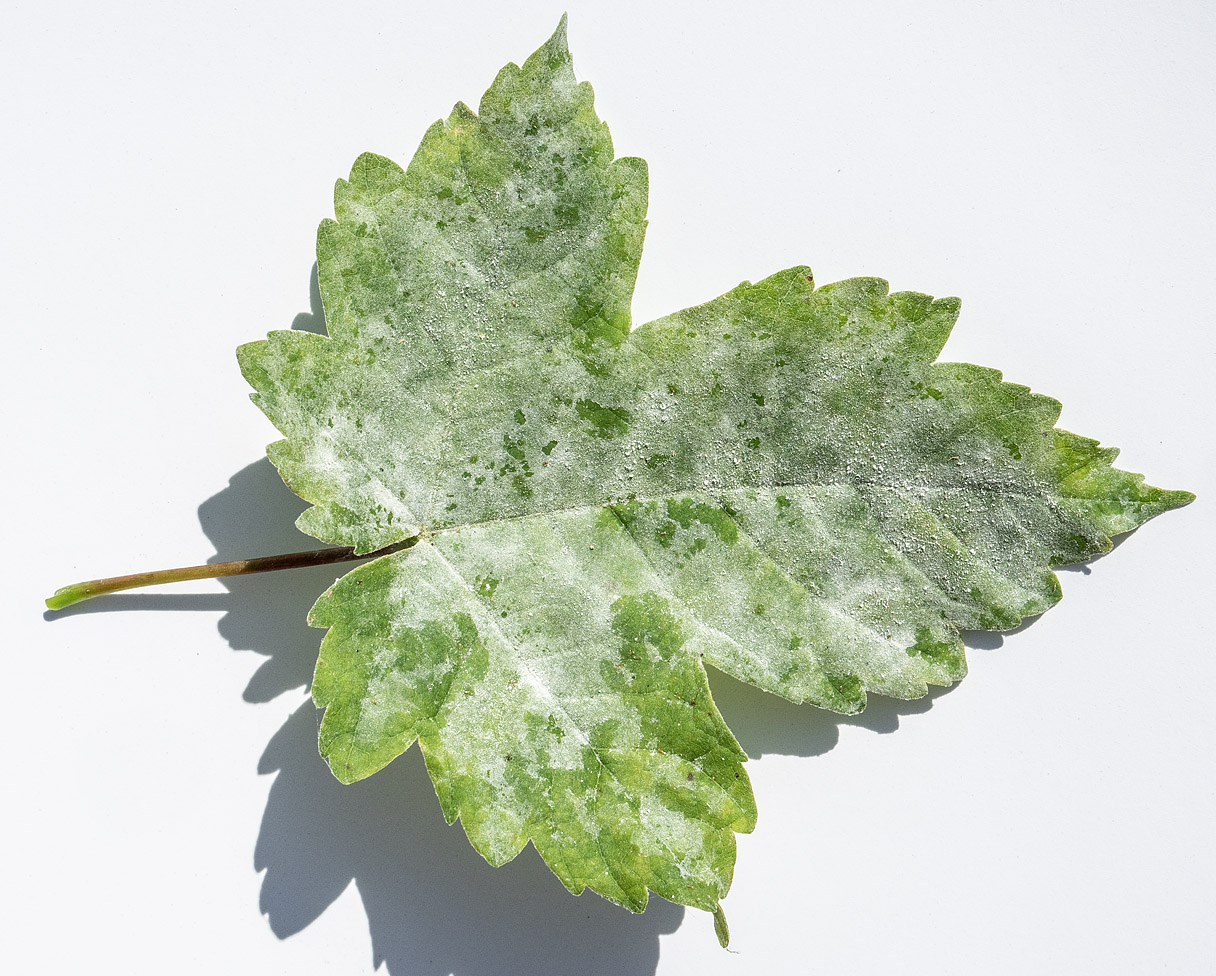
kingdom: Fungi
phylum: Ascomycota
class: Leotiomycetes
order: Helotiales
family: Erysiphaceae
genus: Sawadaea
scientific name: Sawadaea bicornis
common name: Maple mildew
